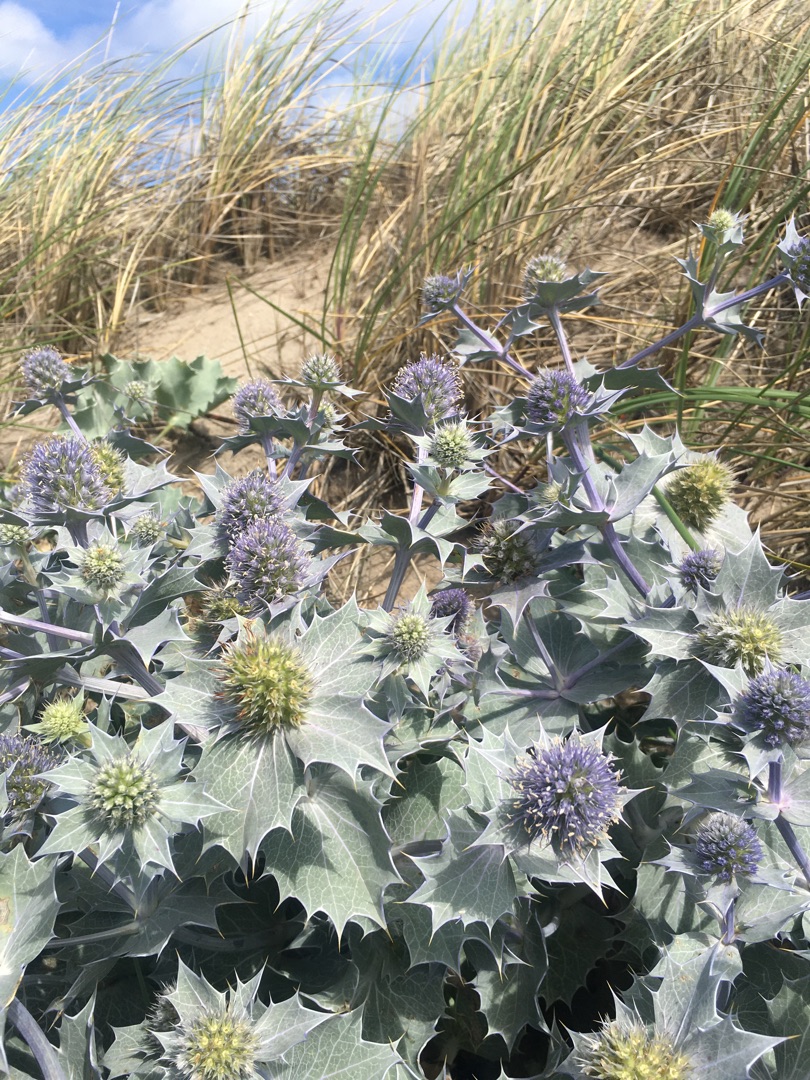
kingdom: Plantae
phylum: Tracheophyta
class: Magnoliopsida
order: Apiales
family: Apiaceae
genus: Eryngium
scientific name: Eryngium maritimum
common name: Strand-mandstro
